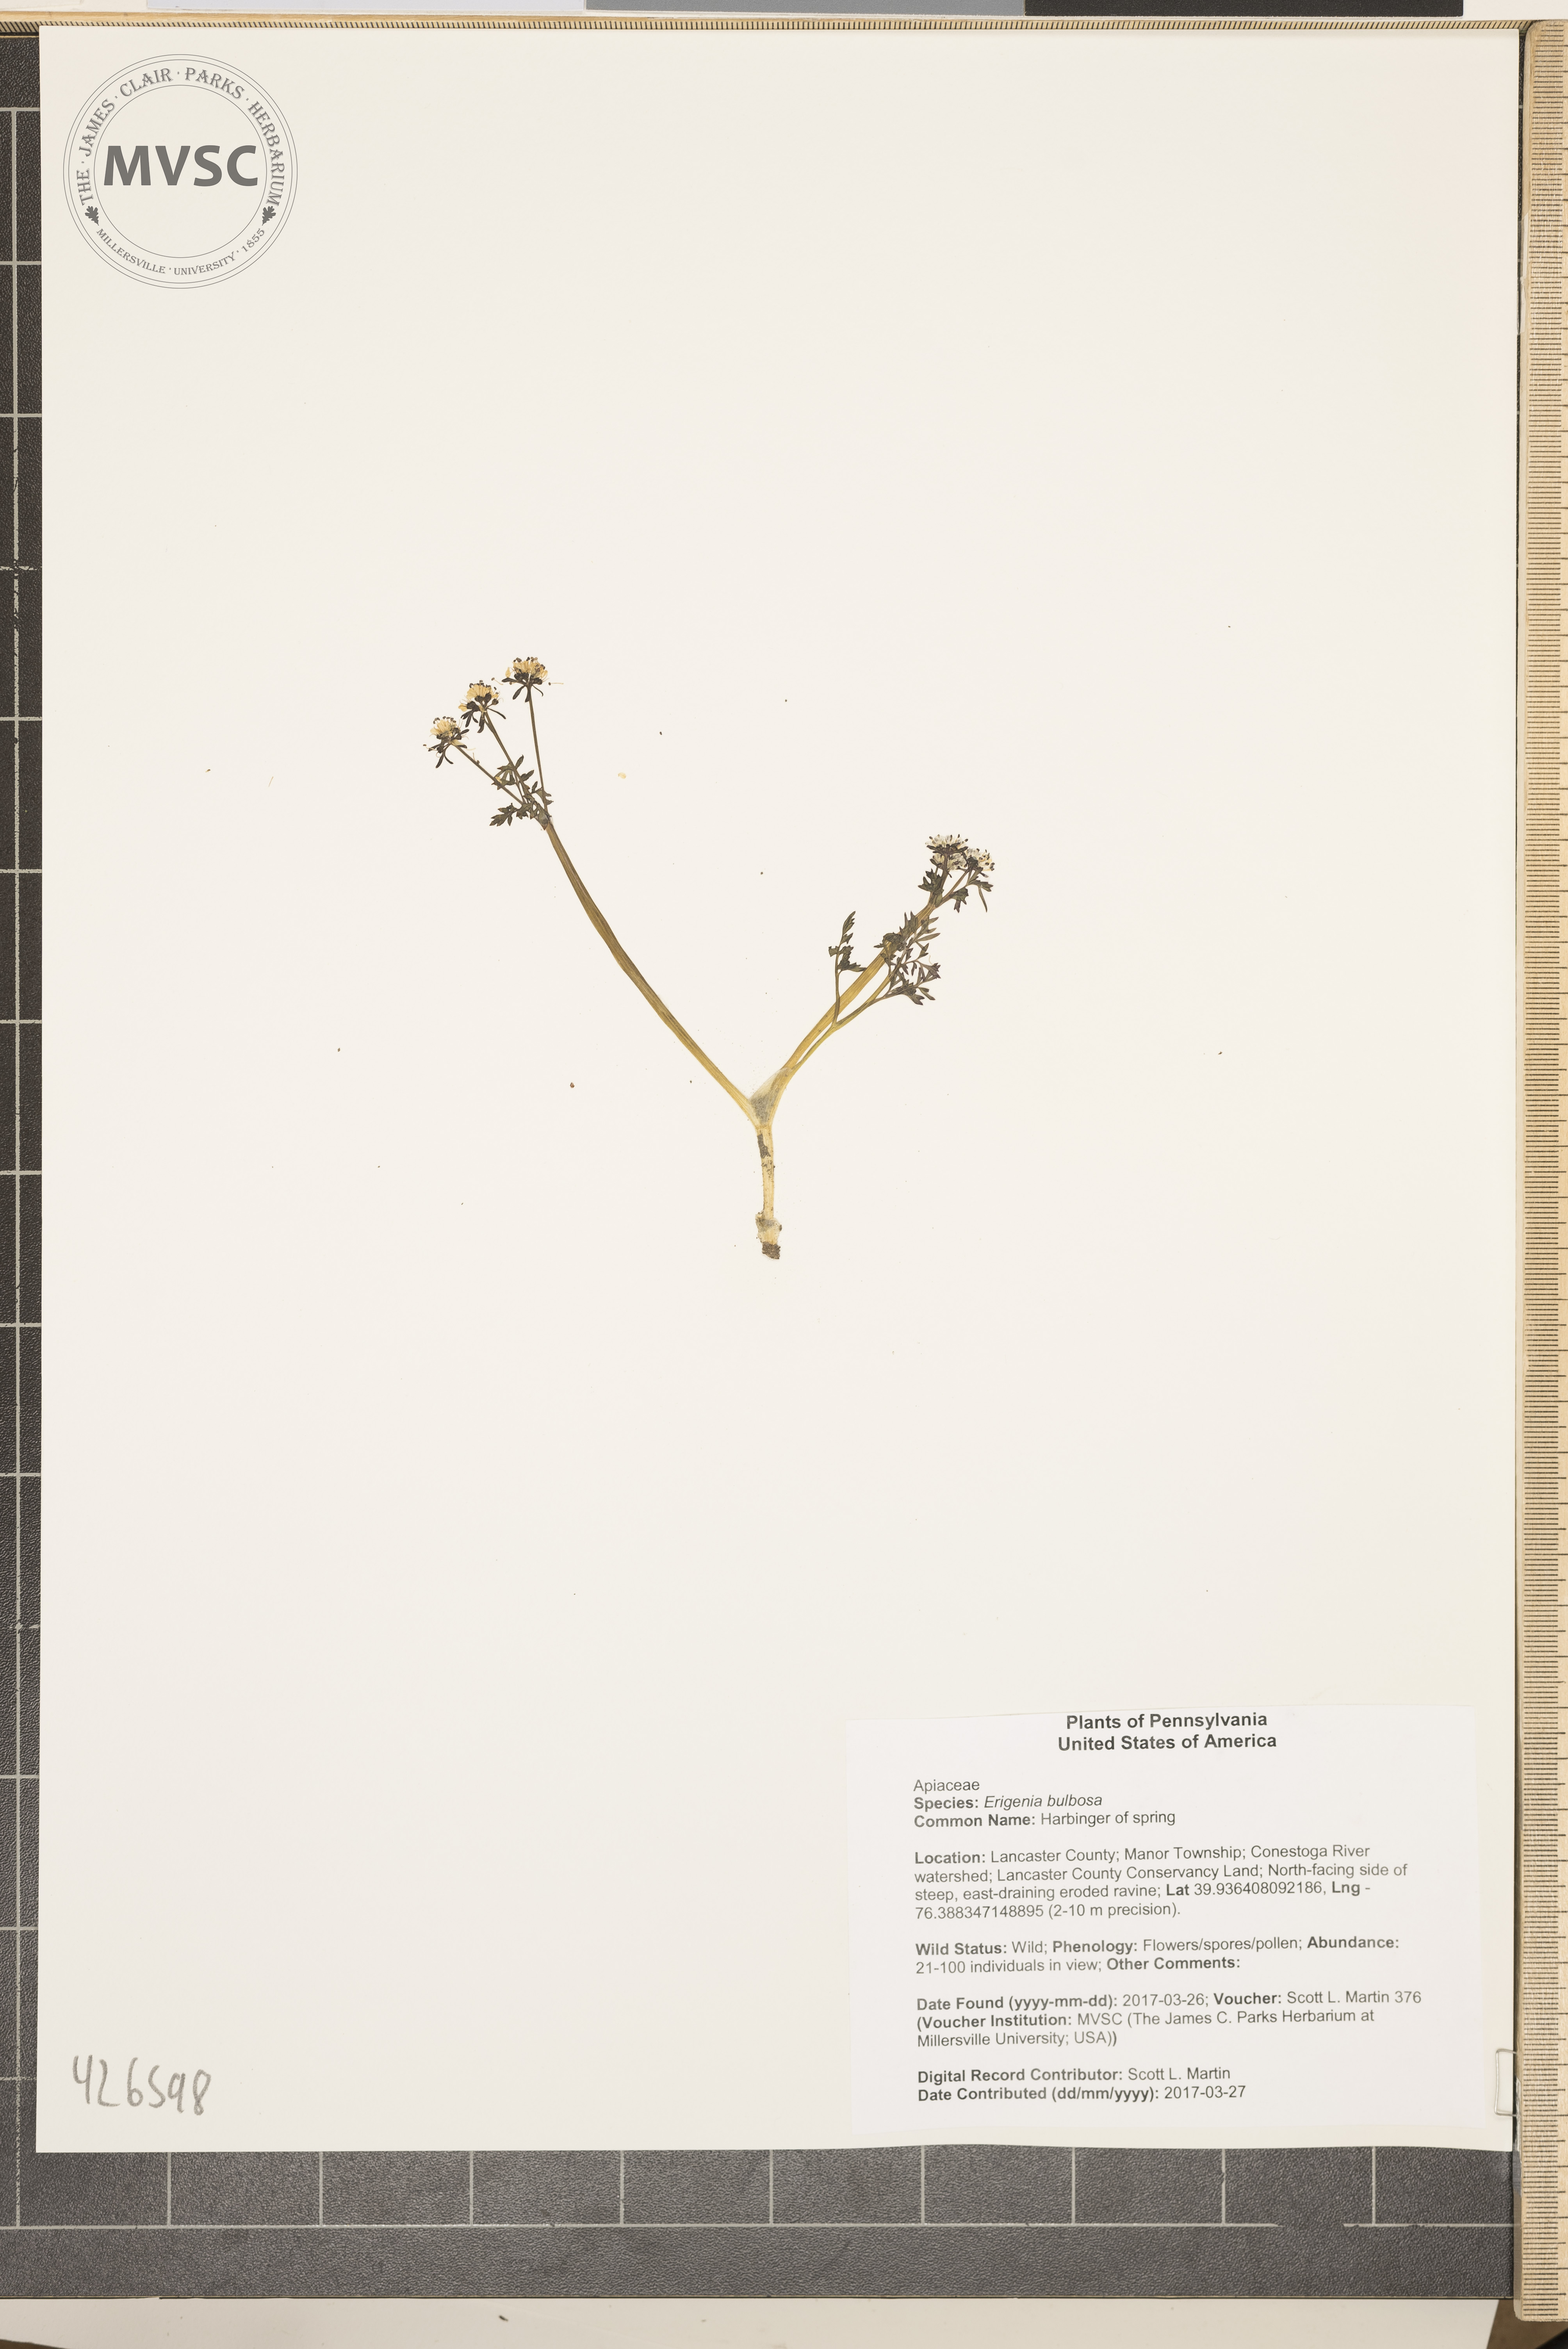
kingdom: Plantae
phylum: Tracheophyta
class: Magnoliopsida
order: Apiales
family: Apiaceae
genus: Erigenia
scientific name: Erigenia bulbosa
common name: Harbinger of spring
